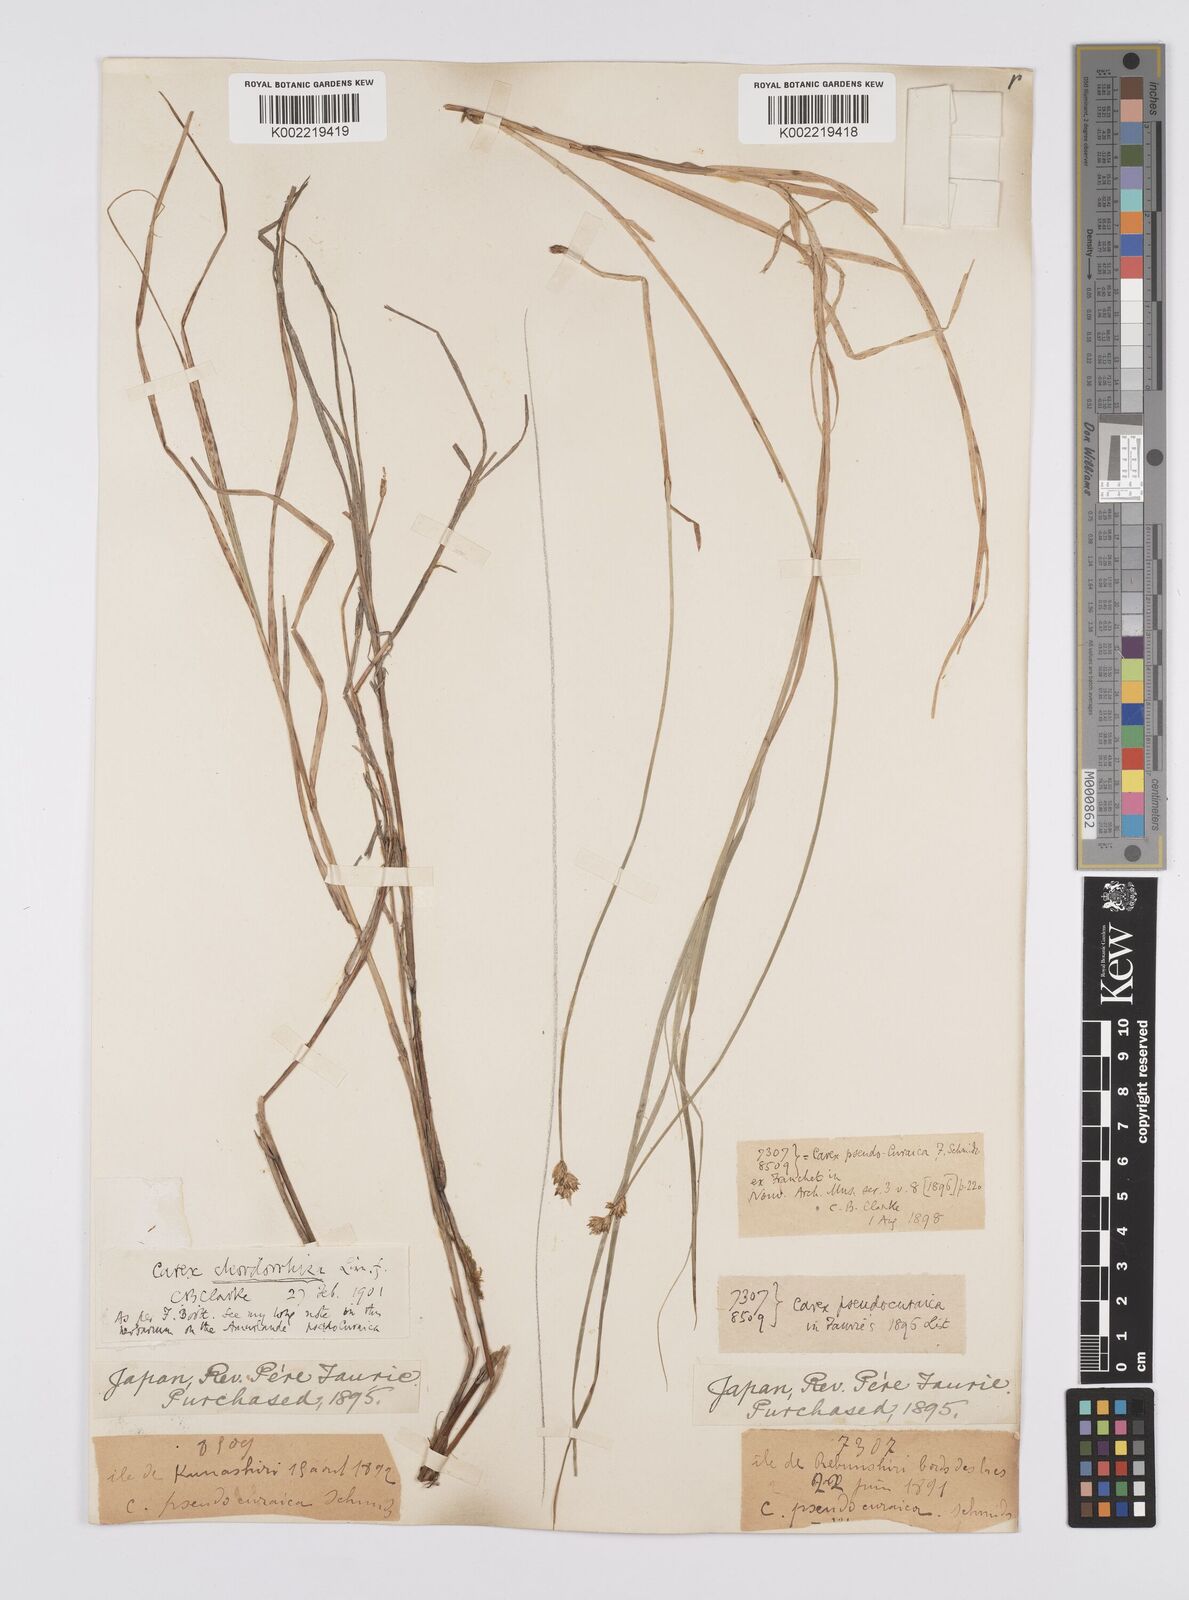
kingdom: Plantae
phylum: Tracheophyta
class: Liliopsida
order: Poales
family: Cyperaceae
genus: Carex
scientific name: Carex chordorrhiza
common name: String sedge
